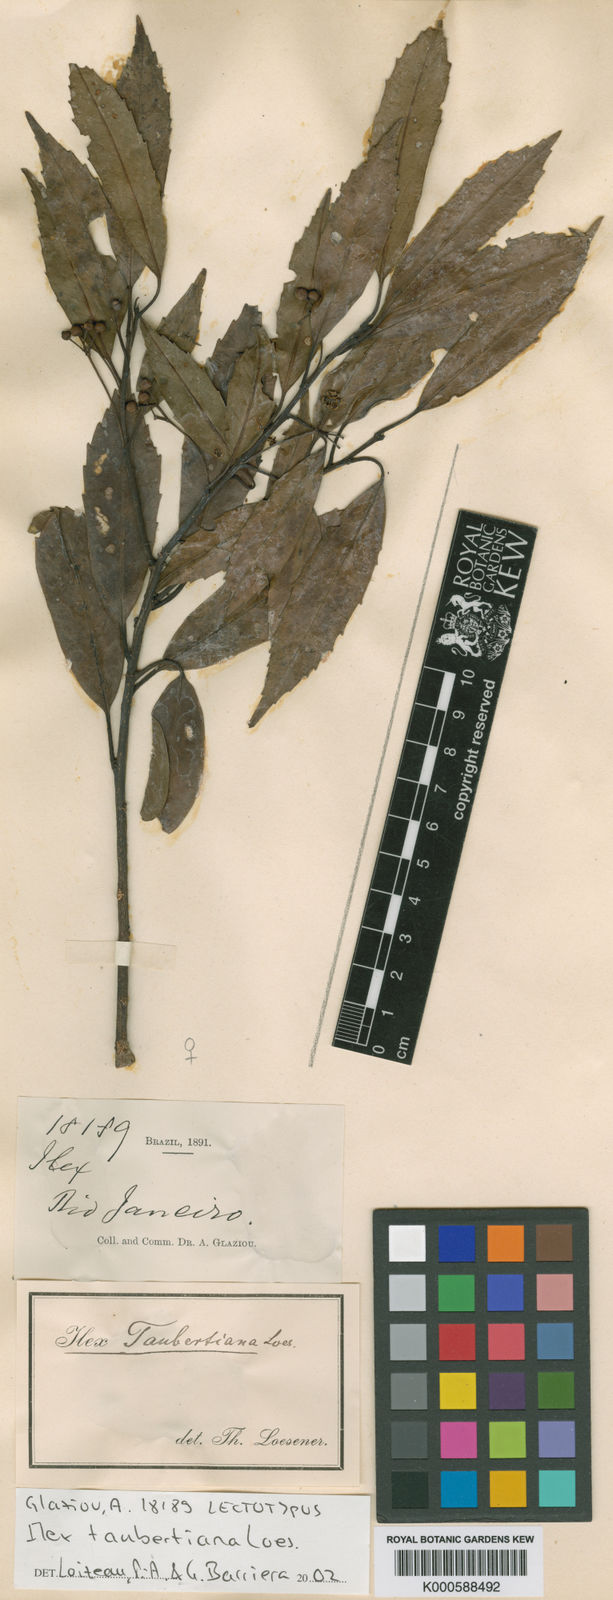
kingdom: Plantae
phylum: Tracheophyta
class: Magnoliopsida
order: Aquifoliales
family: Aquifoliaceae
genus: Ilex
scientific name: Ilex taubertiana
